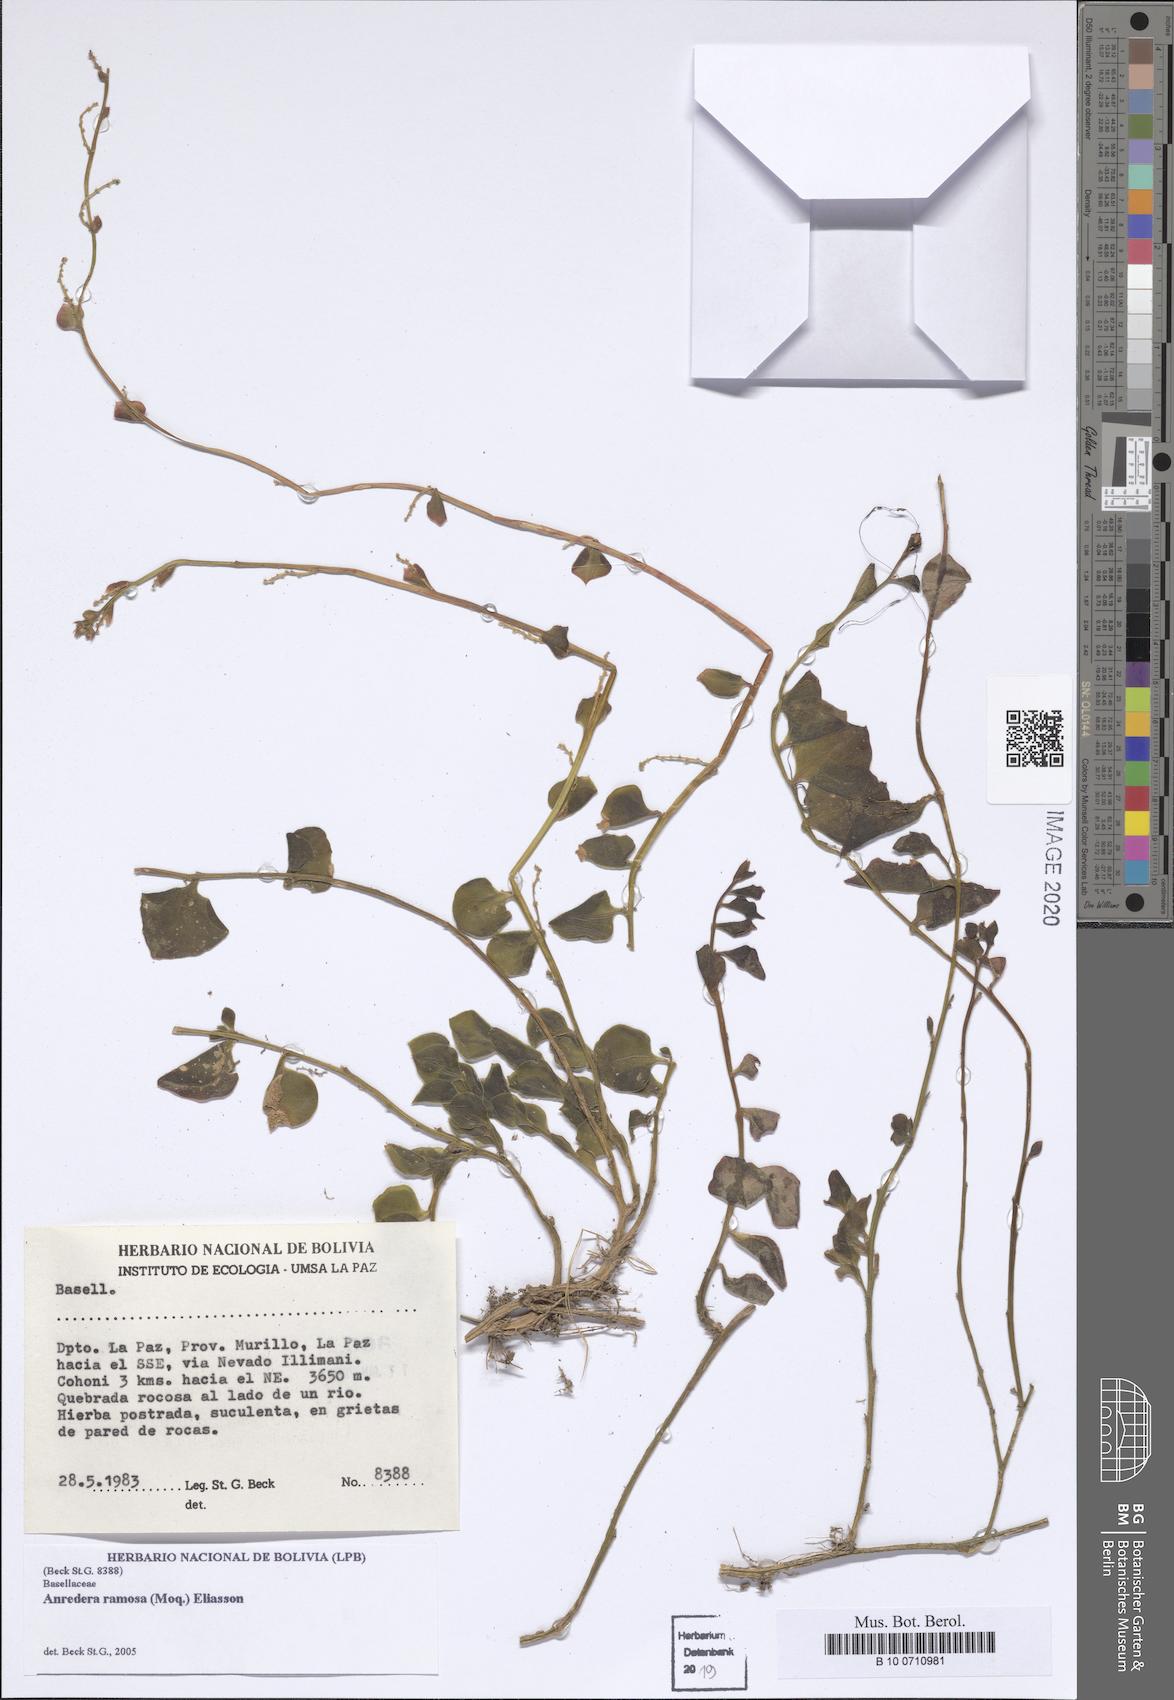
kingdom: Plantae
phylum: Tracheophyta
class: Magnoliopsida
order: Caryophyllales
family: Basellaceae
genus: Anredera
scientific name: Anredera ramosa
